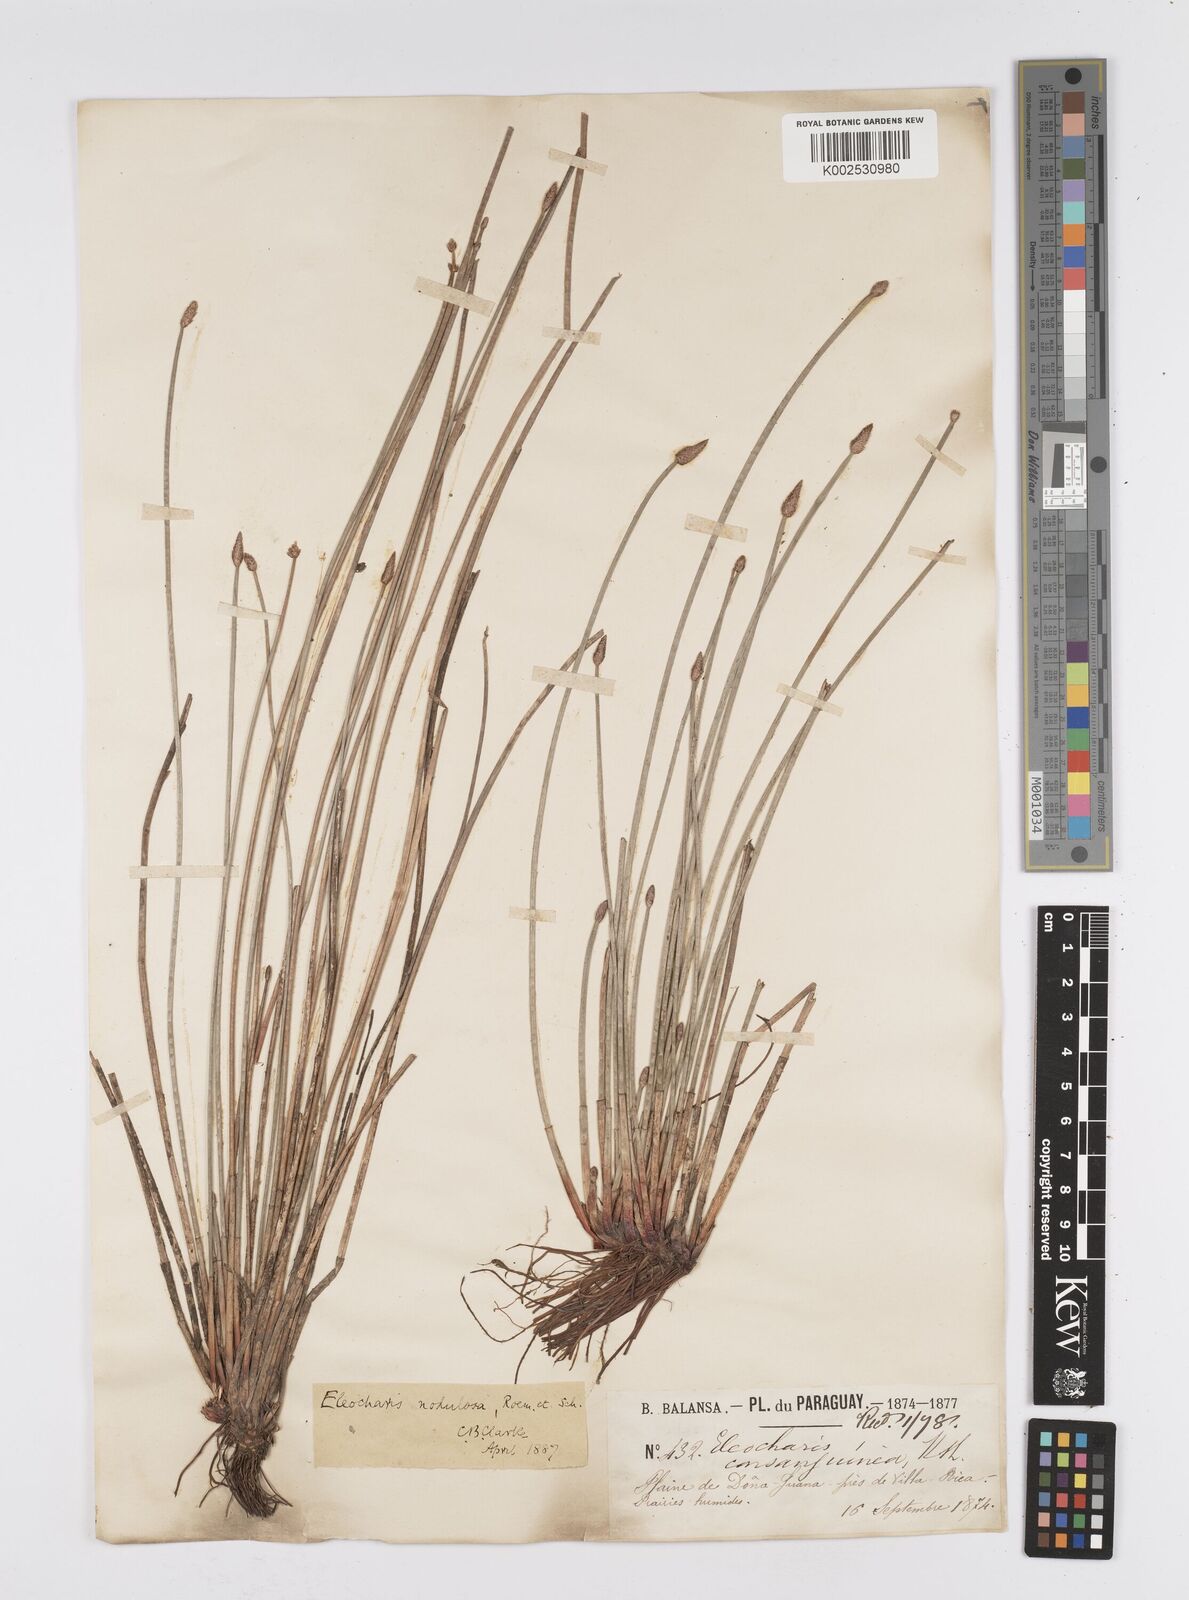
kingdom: Plantae
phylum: Tracheophyta
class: Liliopsida
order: Poales
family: Cyperaceae
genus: Eleocharis
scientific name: Eleocharis montana
